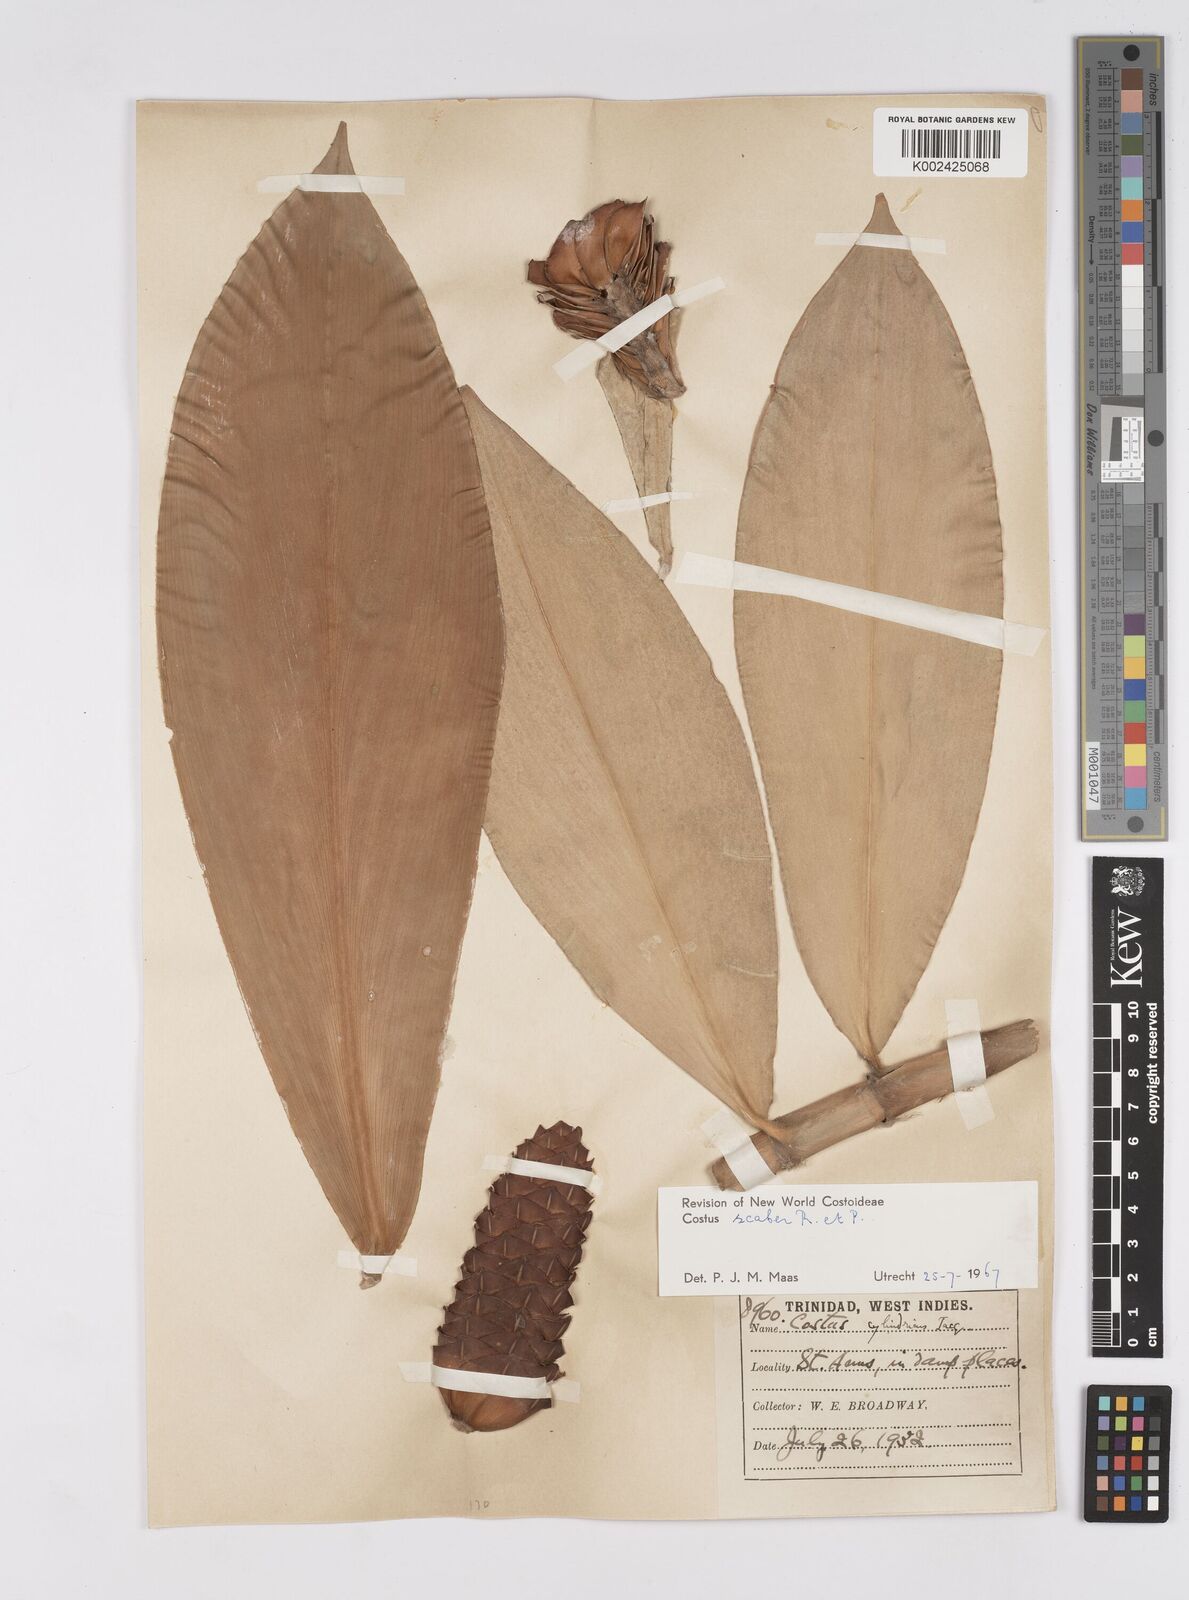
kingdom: Plantae
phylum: Tracheophyta
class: Liliopsida
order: Zingiberales
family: Costaceae
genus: Costus
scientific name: Costus scaber
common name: Spiral head ginger
